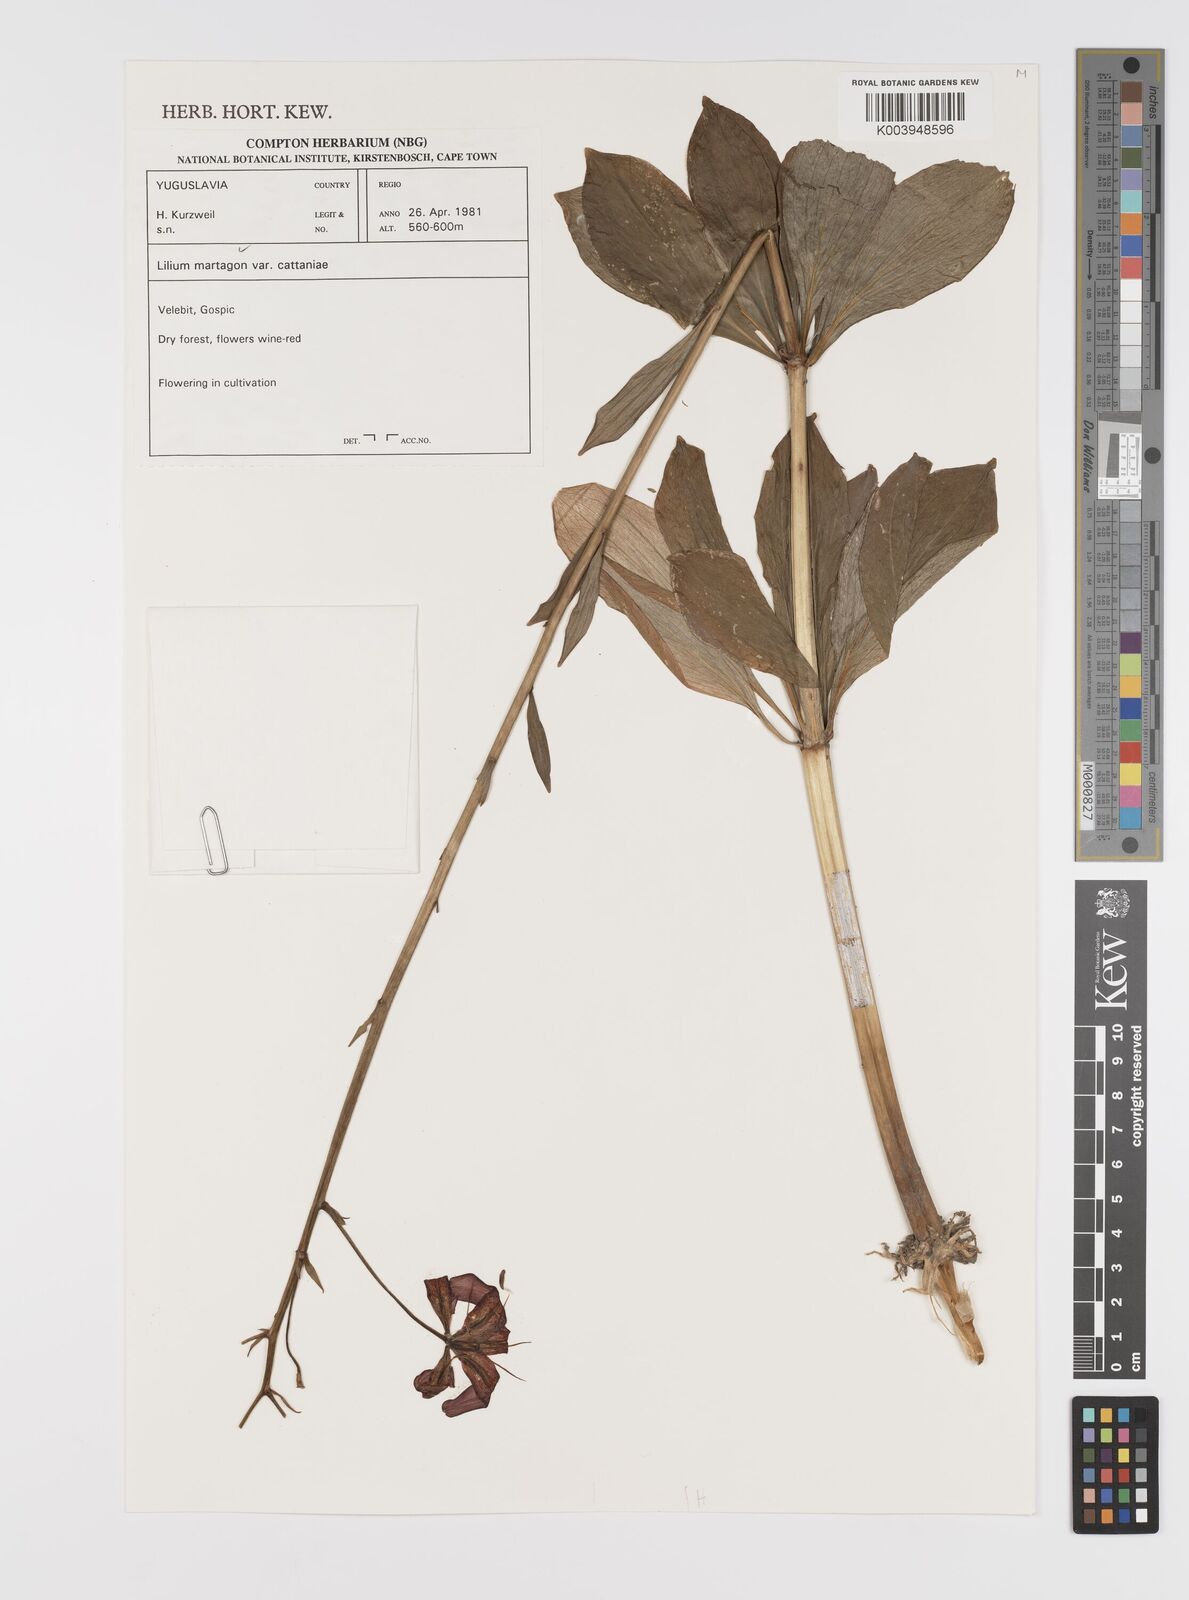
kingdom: Plantae
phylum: Tracheophyta
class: Liliopsida
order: Liliales
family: Liliaceae
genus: Lilium
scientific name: Lilium martagon
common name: Martagon lily
